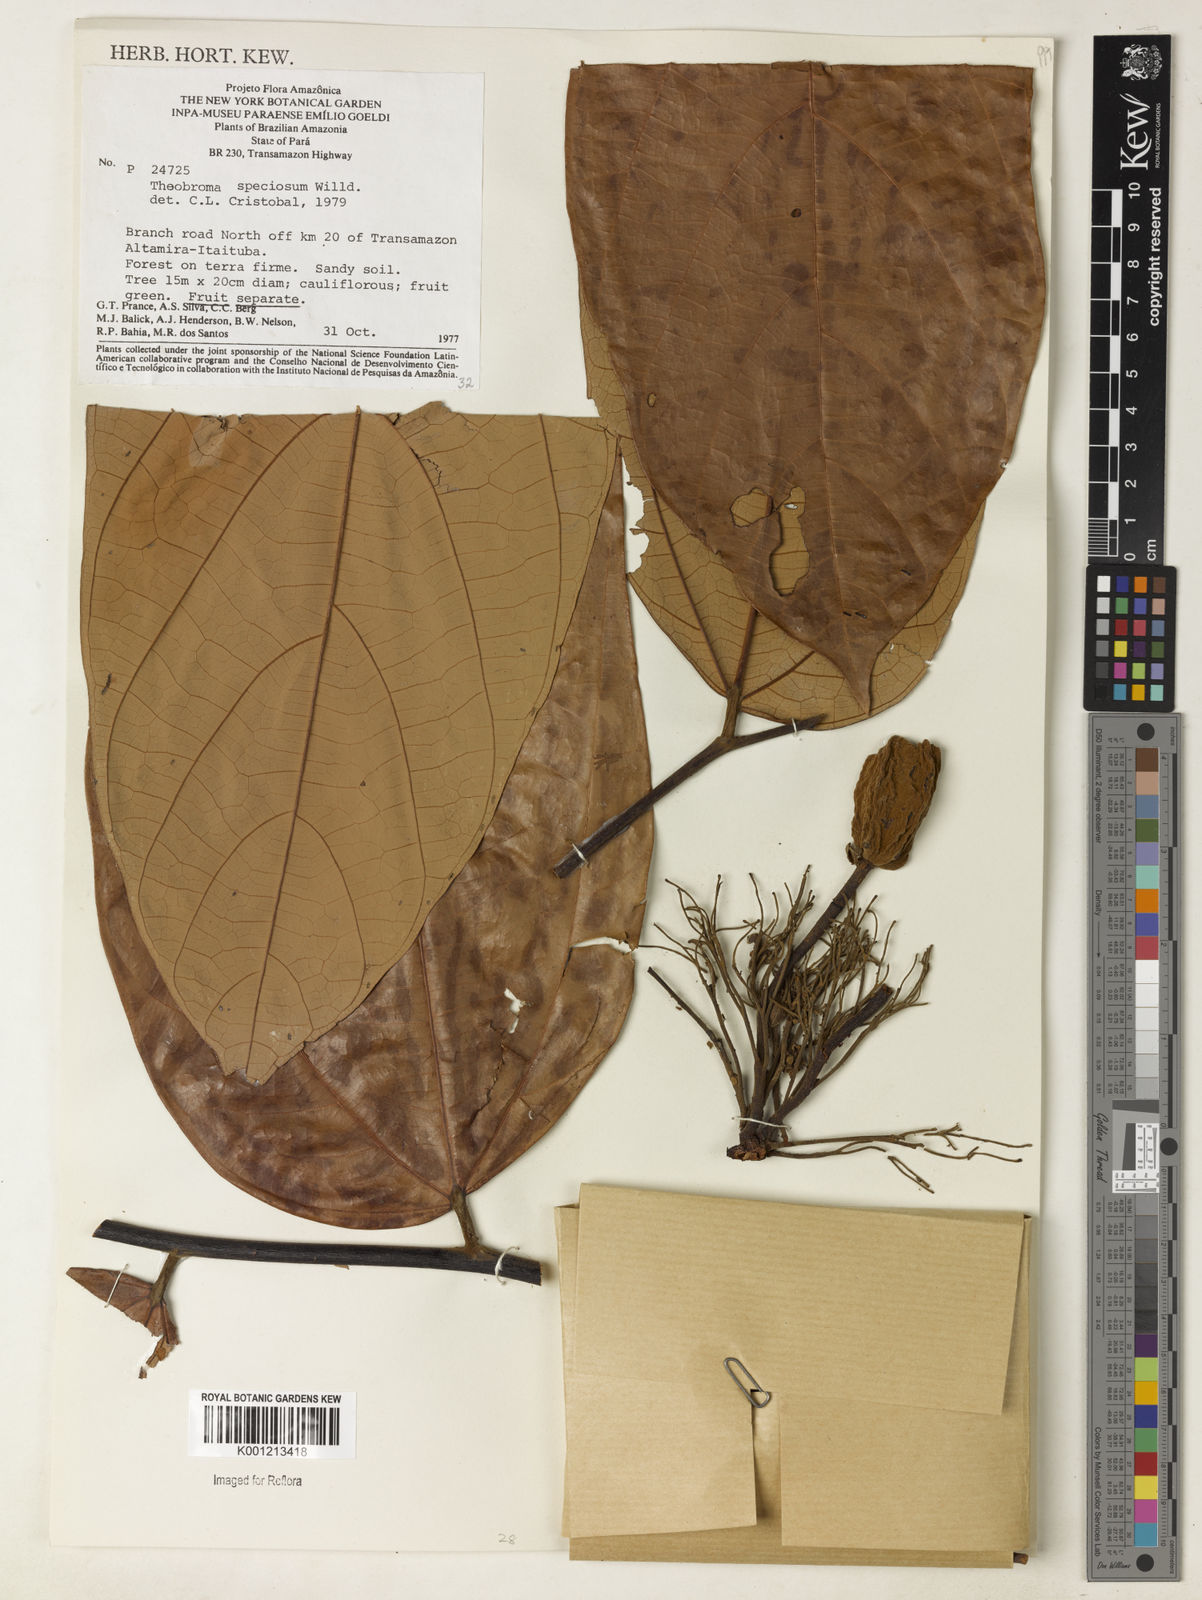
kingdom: Plantae
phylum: Tracheophyta
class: Magnoliopsida
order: Malvales
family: Malvaceae
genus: Theobroma
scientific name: Theobroma speciosum
